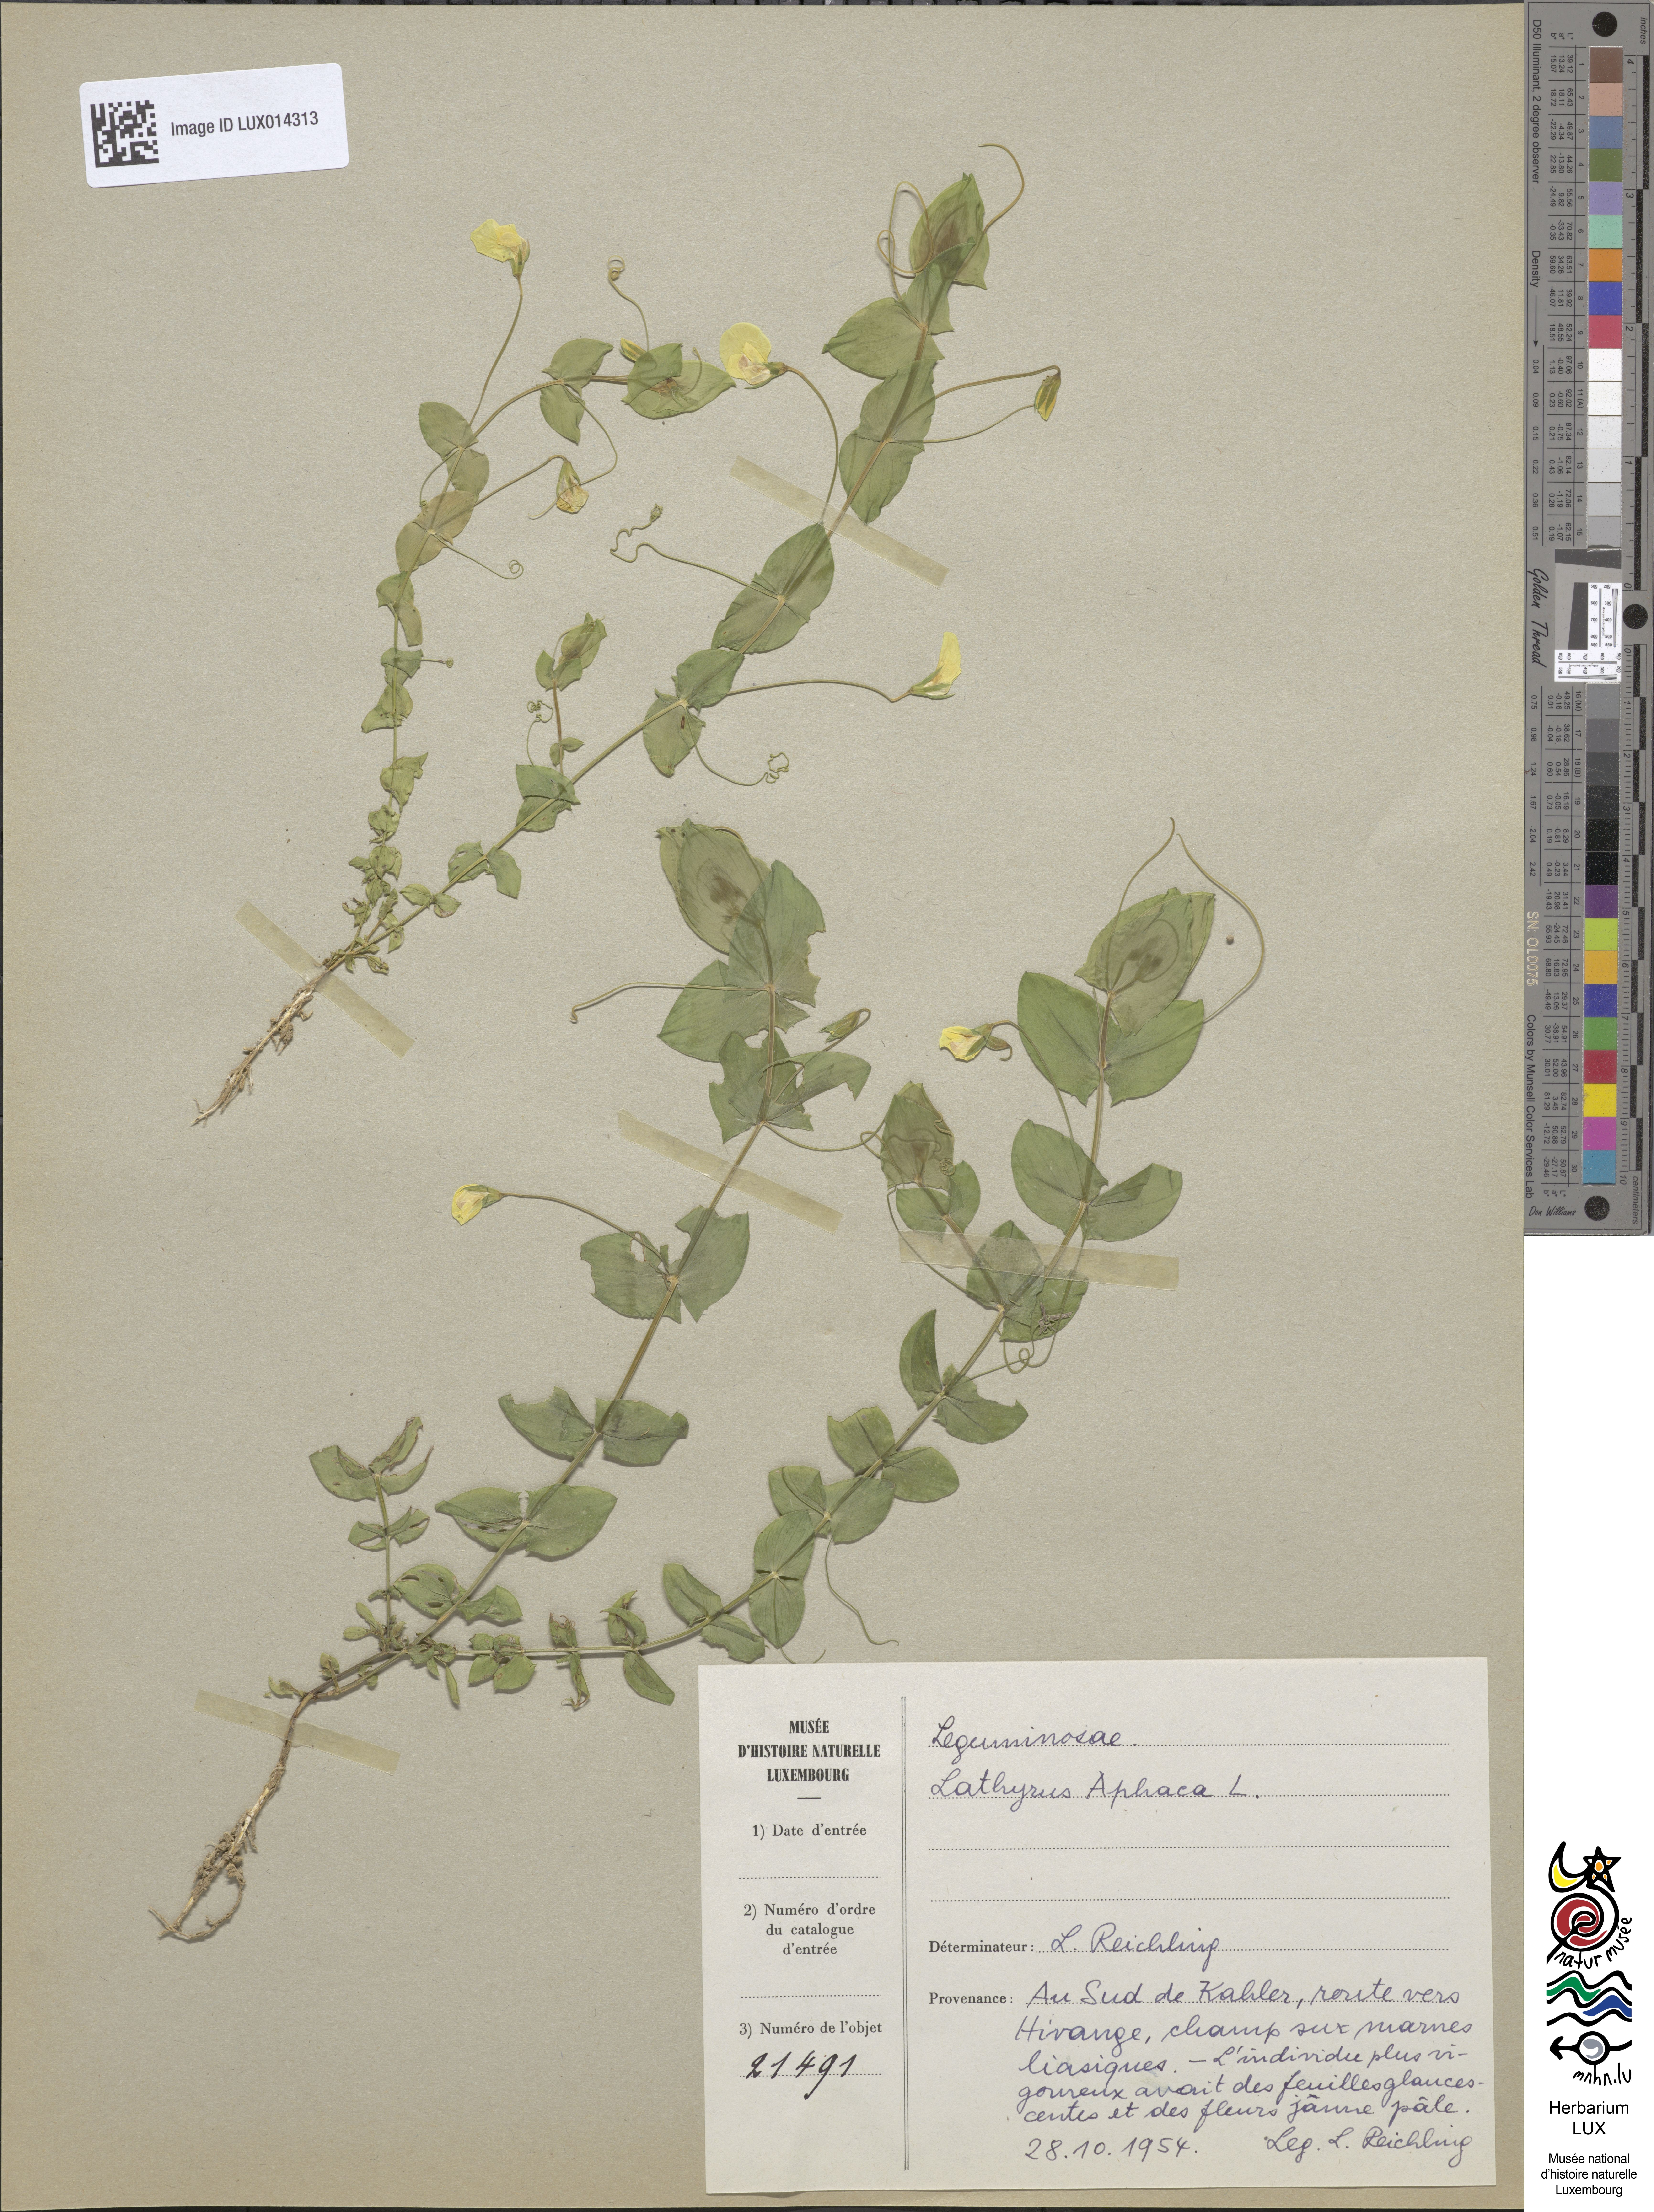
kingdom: Plantae
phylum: Tracheophyta
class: Magnoliopsida
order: Fabales
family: Fabaceae
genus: Lathyrus
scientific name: Lathyrus aphaca
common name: Yellow vetchling
